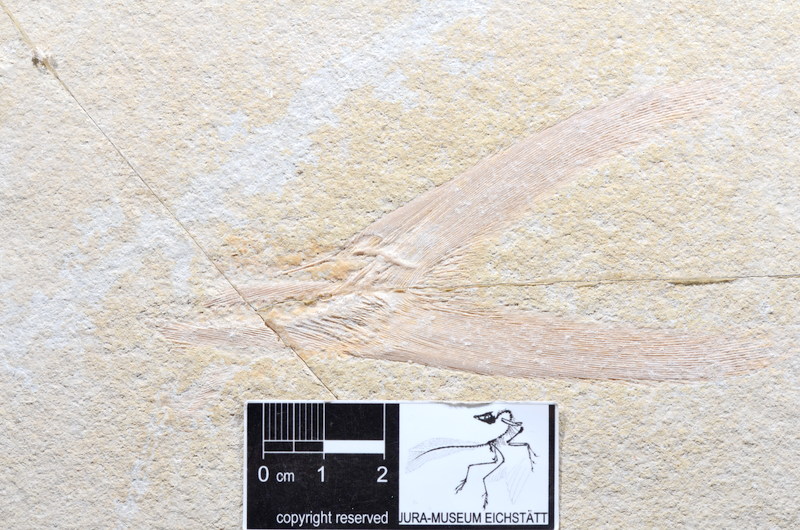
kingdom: Animalia
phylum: Chordata
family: Pachycormidae
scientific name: Pachycormidae
